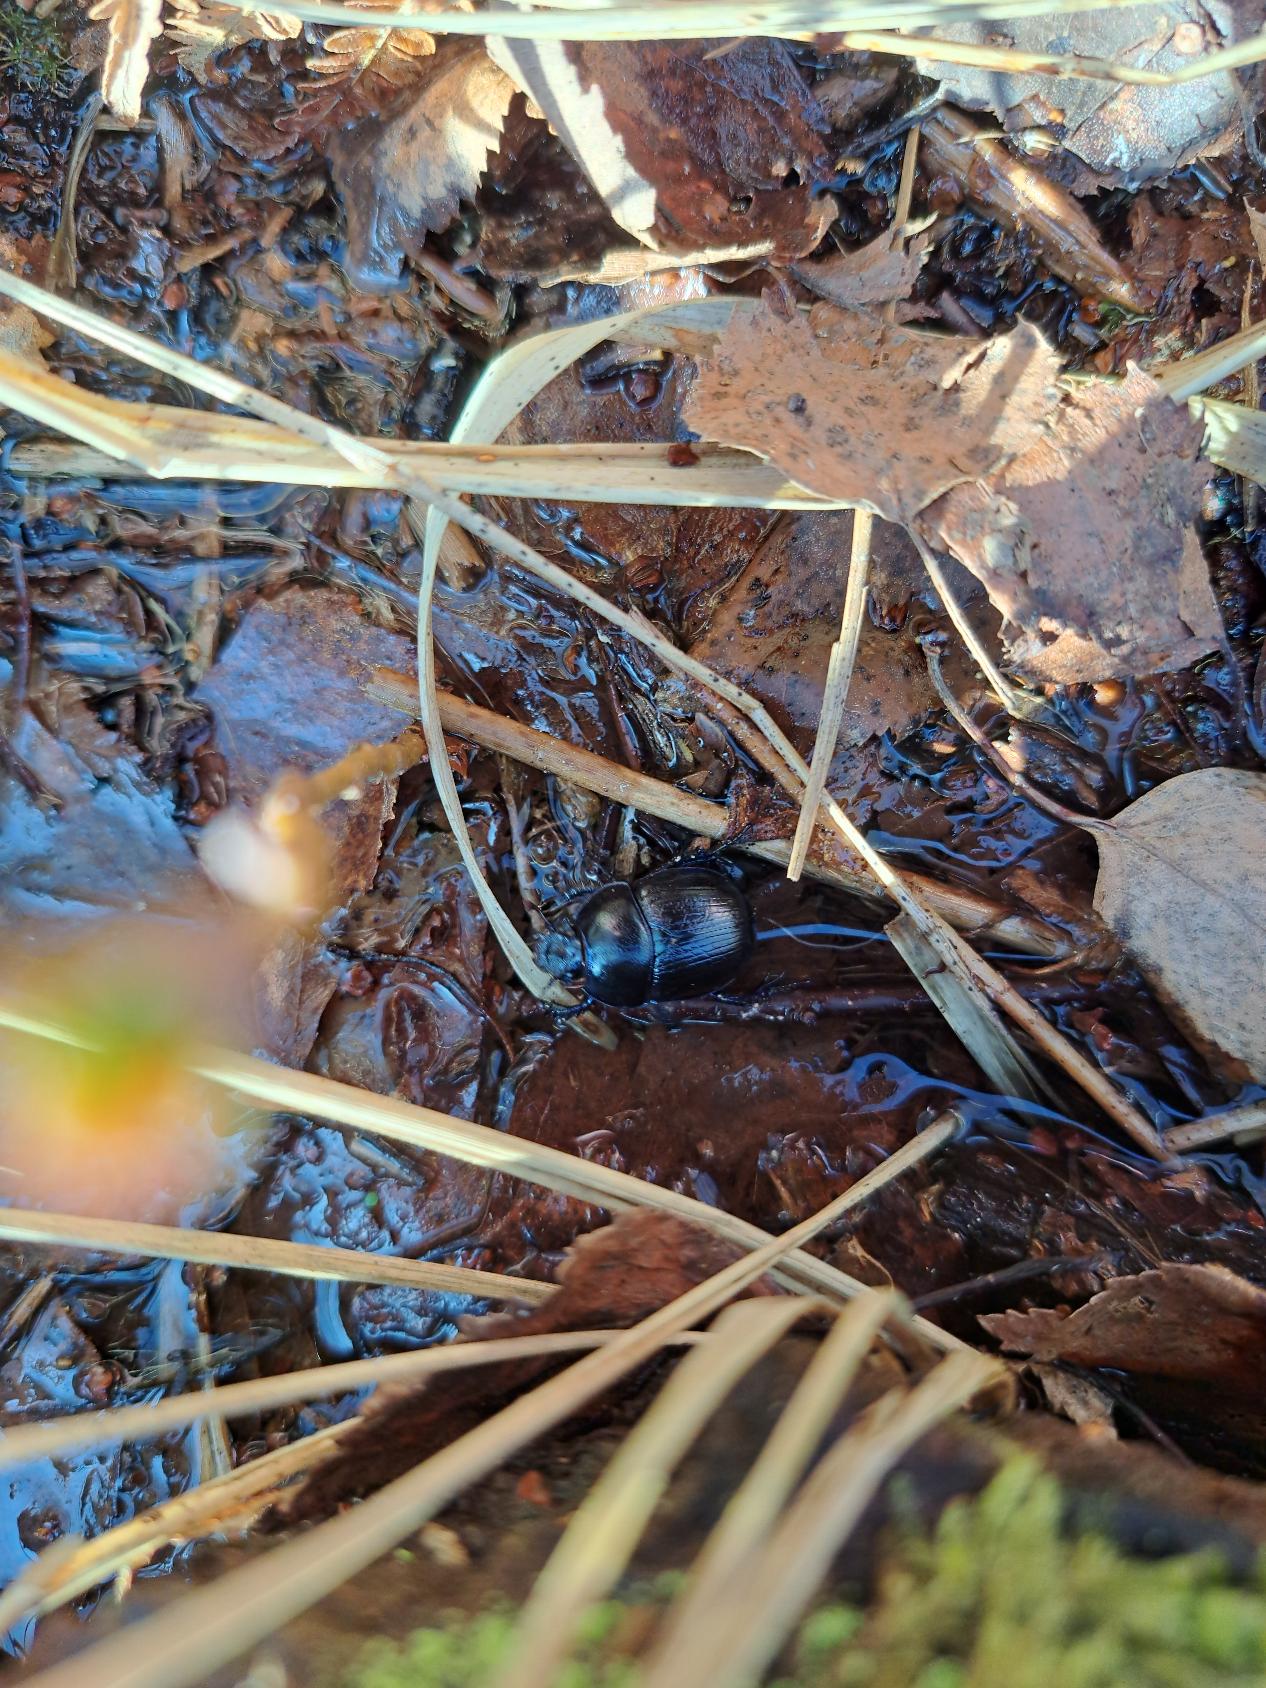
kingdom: Animalia
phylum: Arthropoda
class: Insecta
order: Coleoptera
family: Geotrupidae
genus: Anoplotrupes
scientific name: Anoplotrupes stercorosus
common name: Skovskarnbasse
